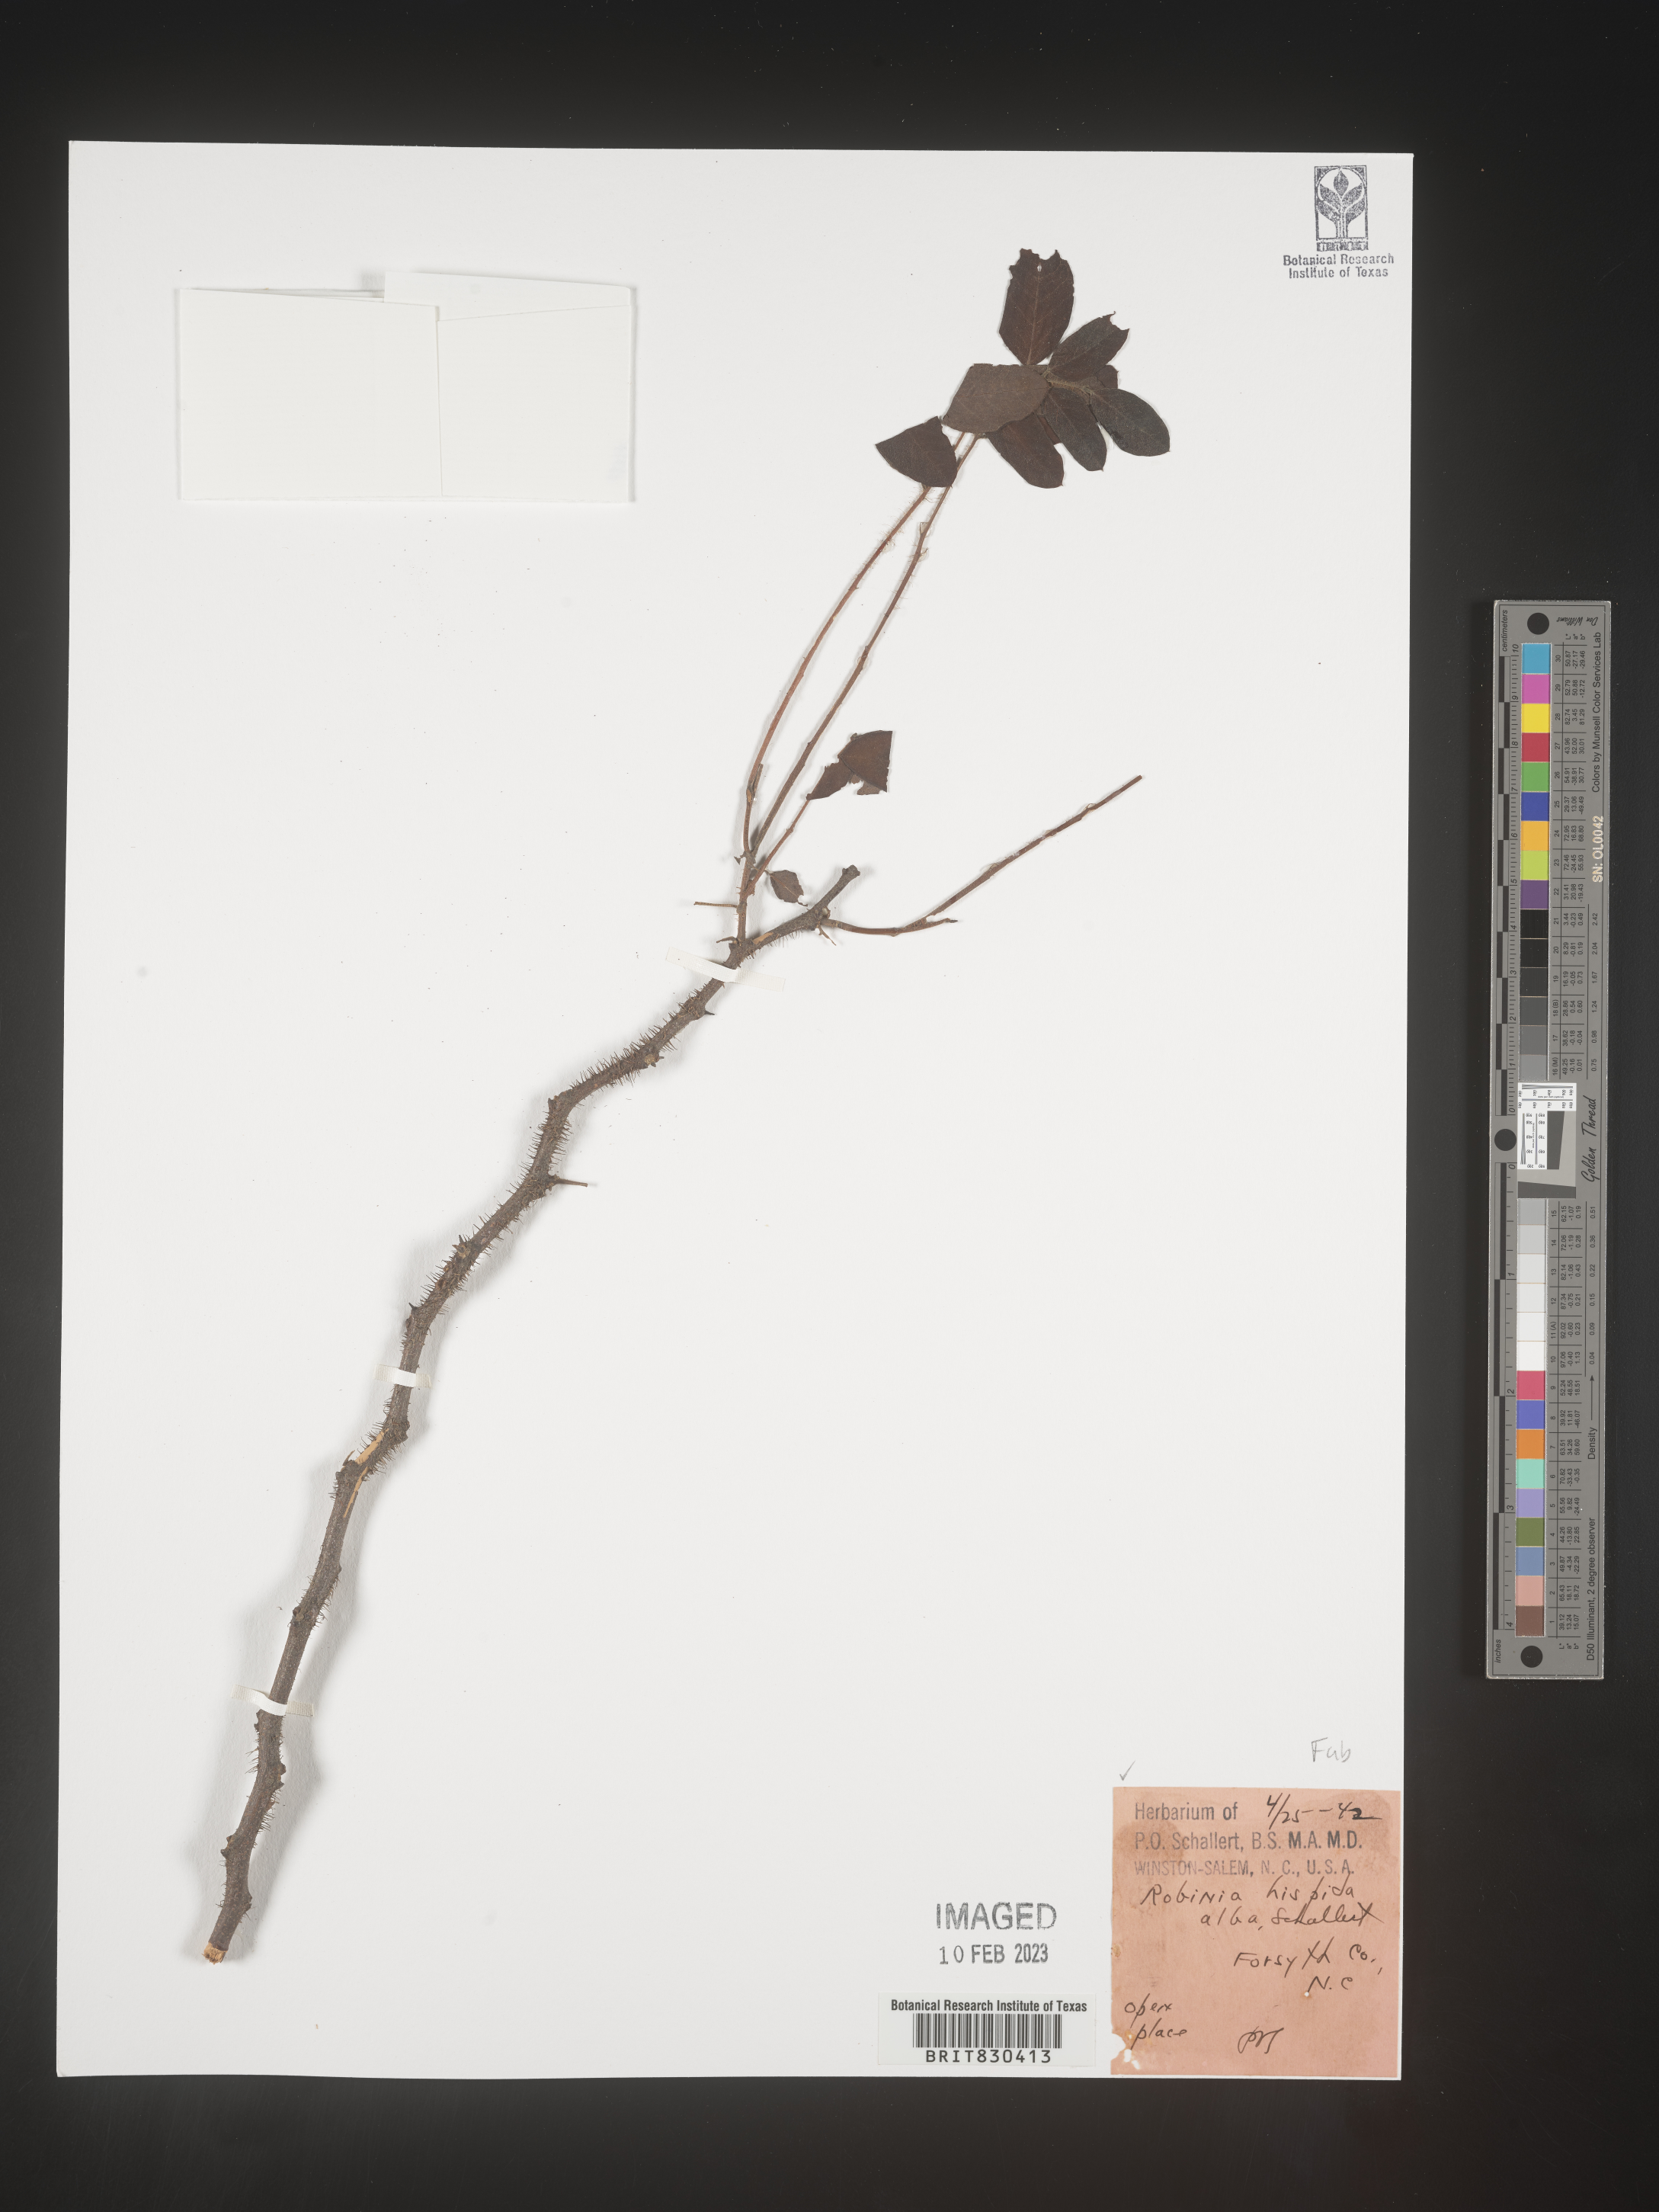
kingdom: Plantae
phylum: Tracheophyta
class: Magnoliopsida
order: Fabales
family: Fabaceae
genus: Robinia
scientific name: Robinia hispida
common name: Bristly locust
